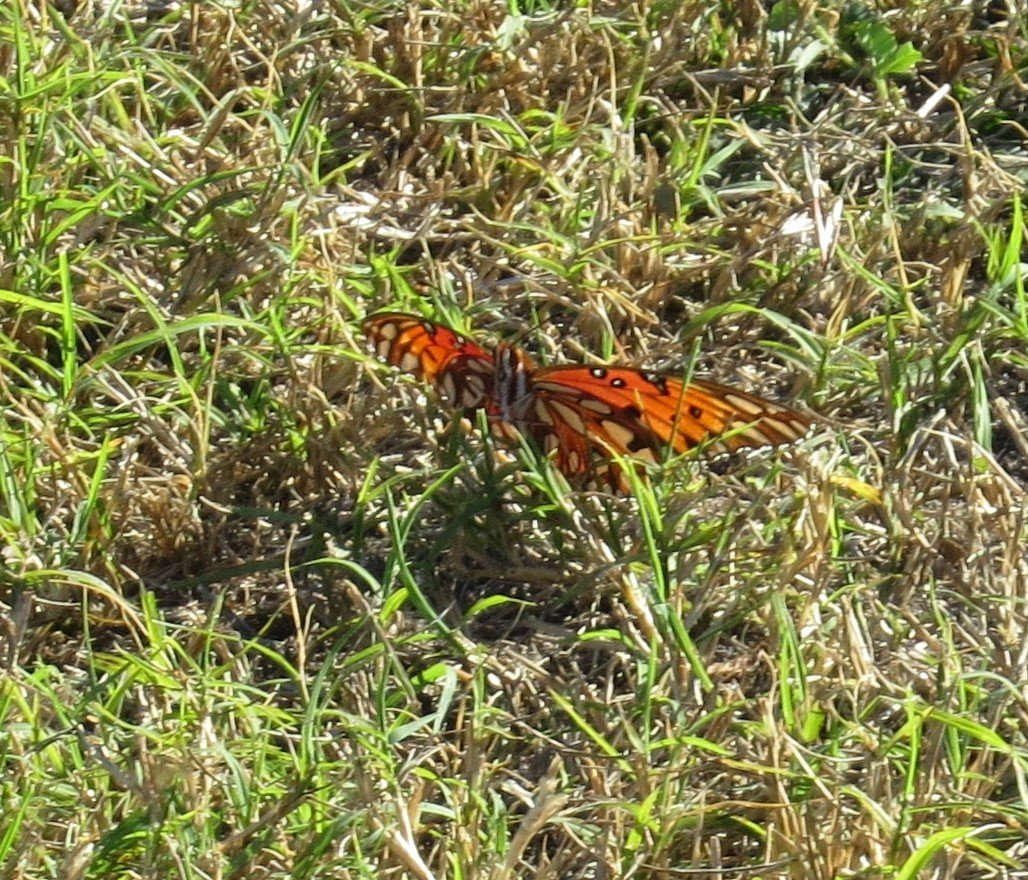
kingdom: Animalia
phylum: Arthropoda
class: Insecta
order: Lepidoptera
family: Nymphalidae
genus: Dione
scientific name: Dione vanillae
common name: Gulf Fritillary
